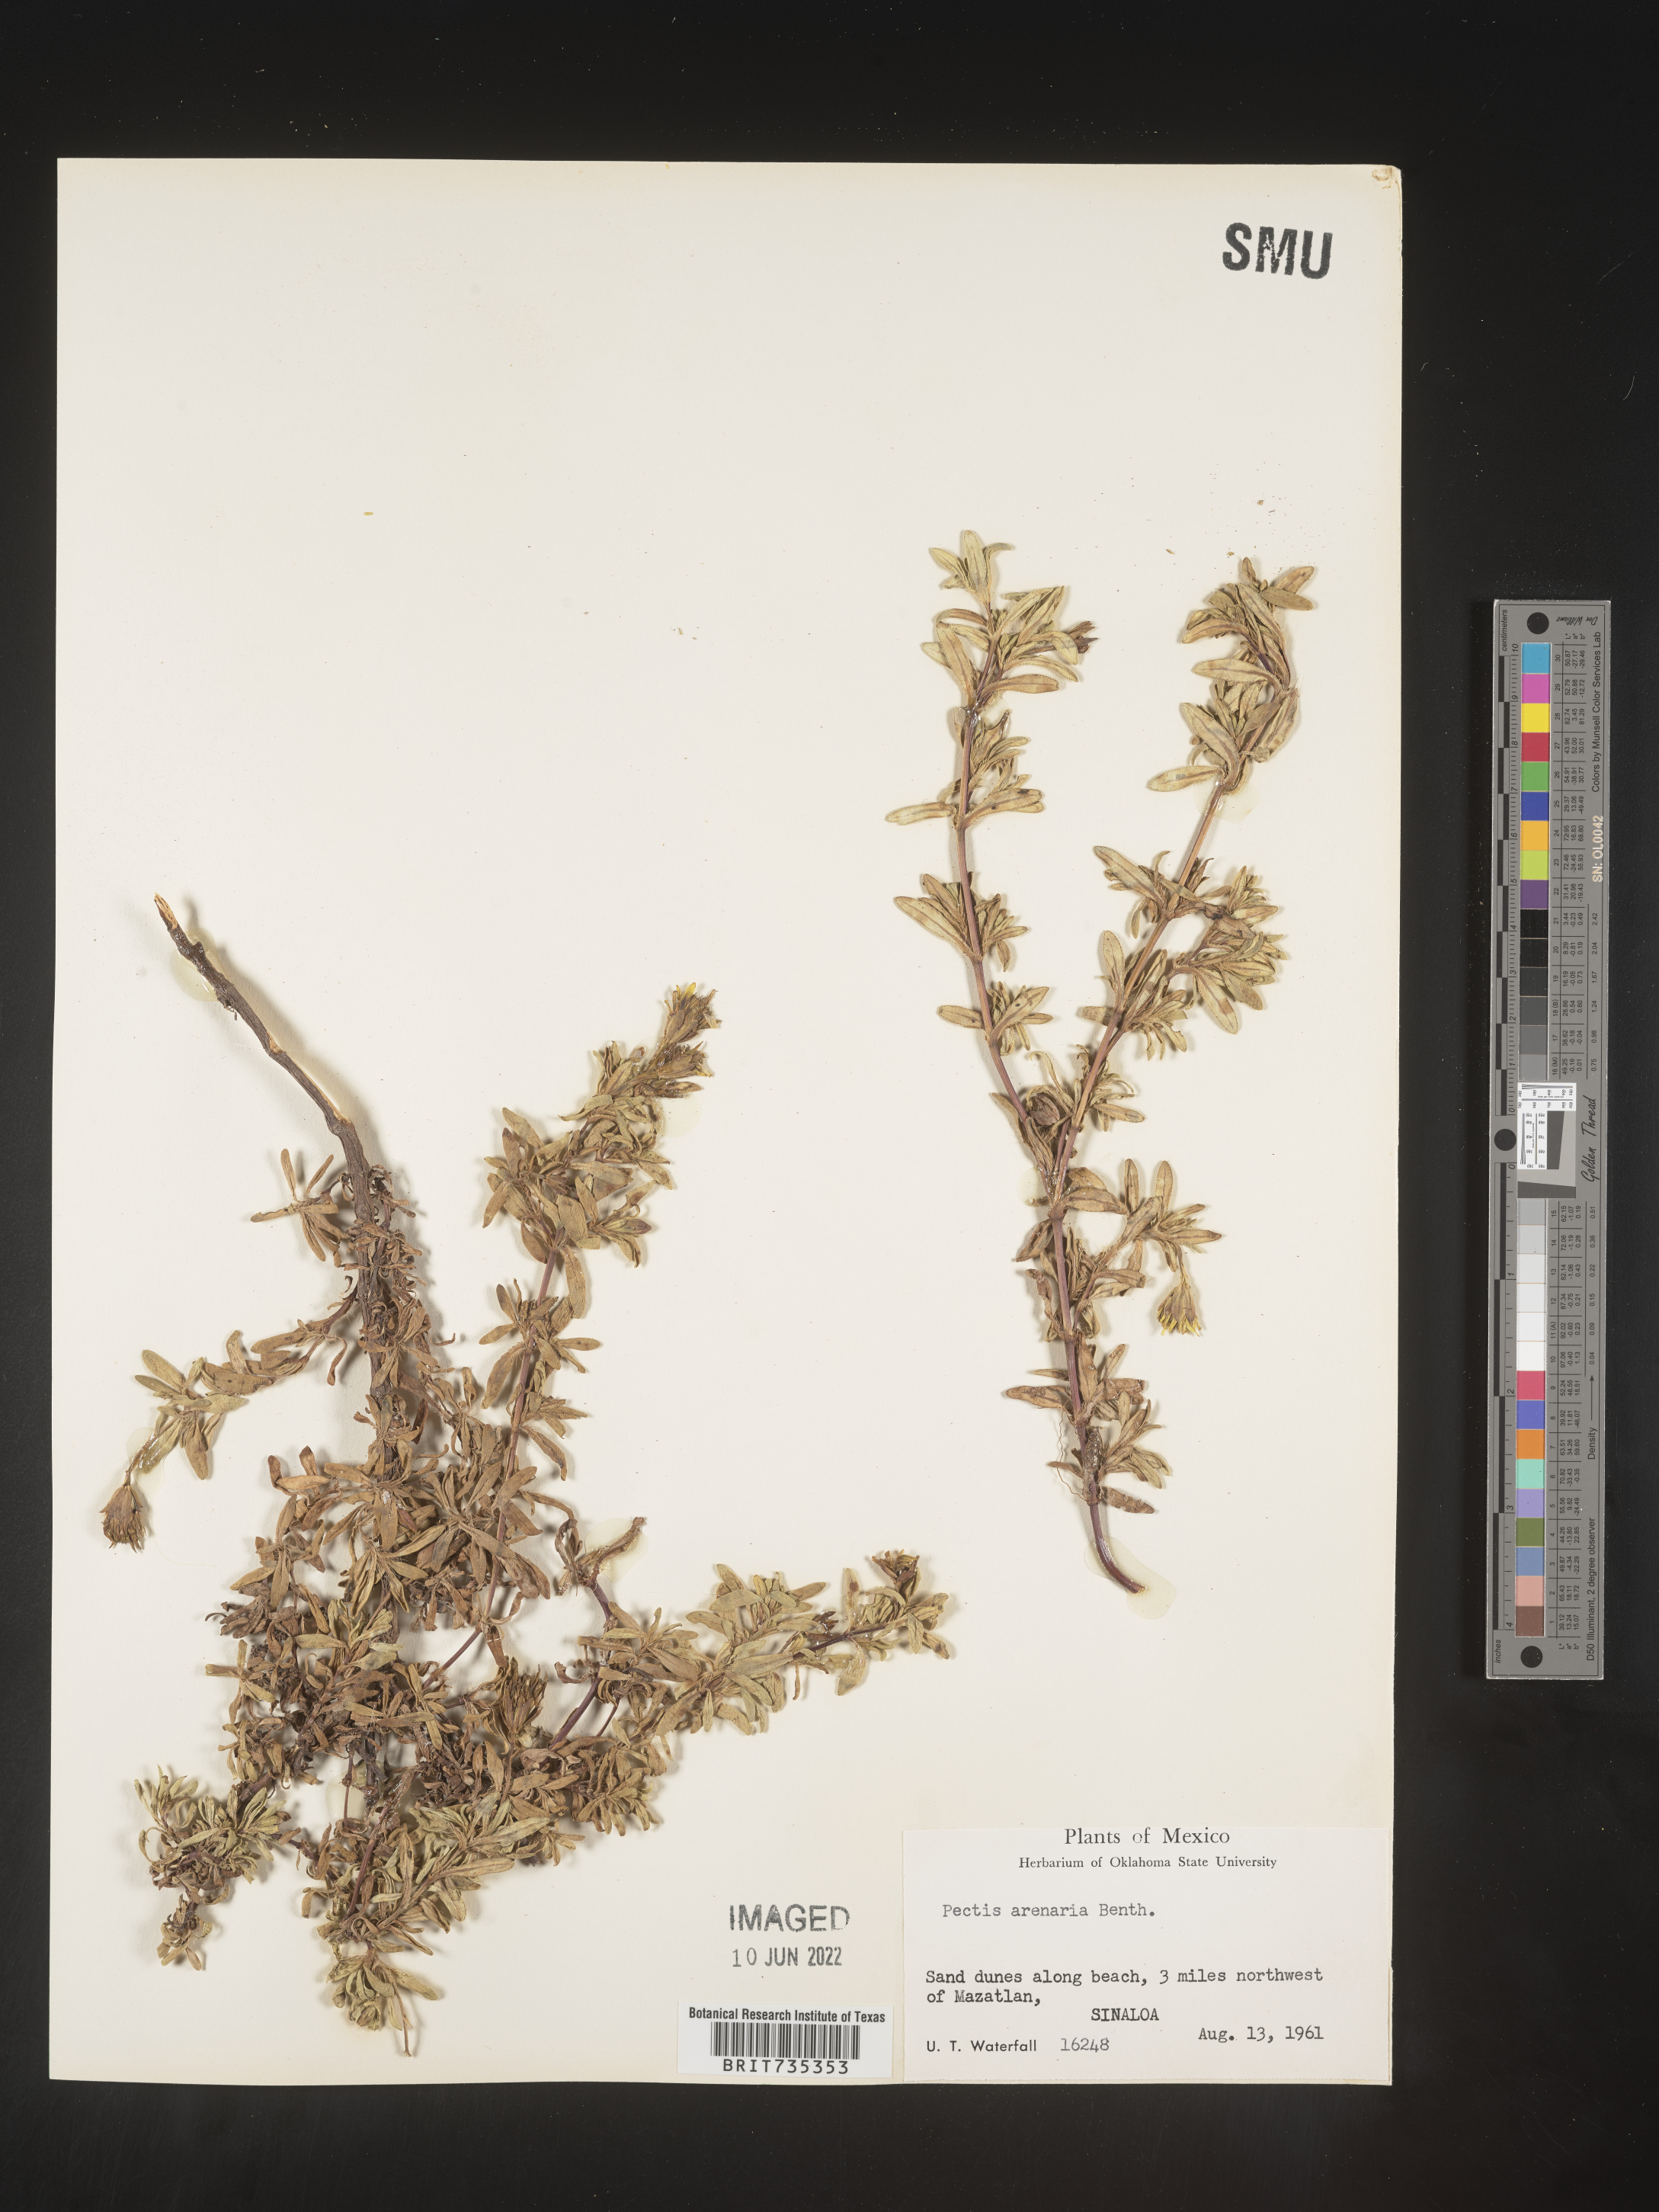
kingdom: Plantae
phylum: Tracheophyta
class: Magnoliopsida
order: Asterales
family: Asteraceae
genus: Pectis
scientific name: Pectis
